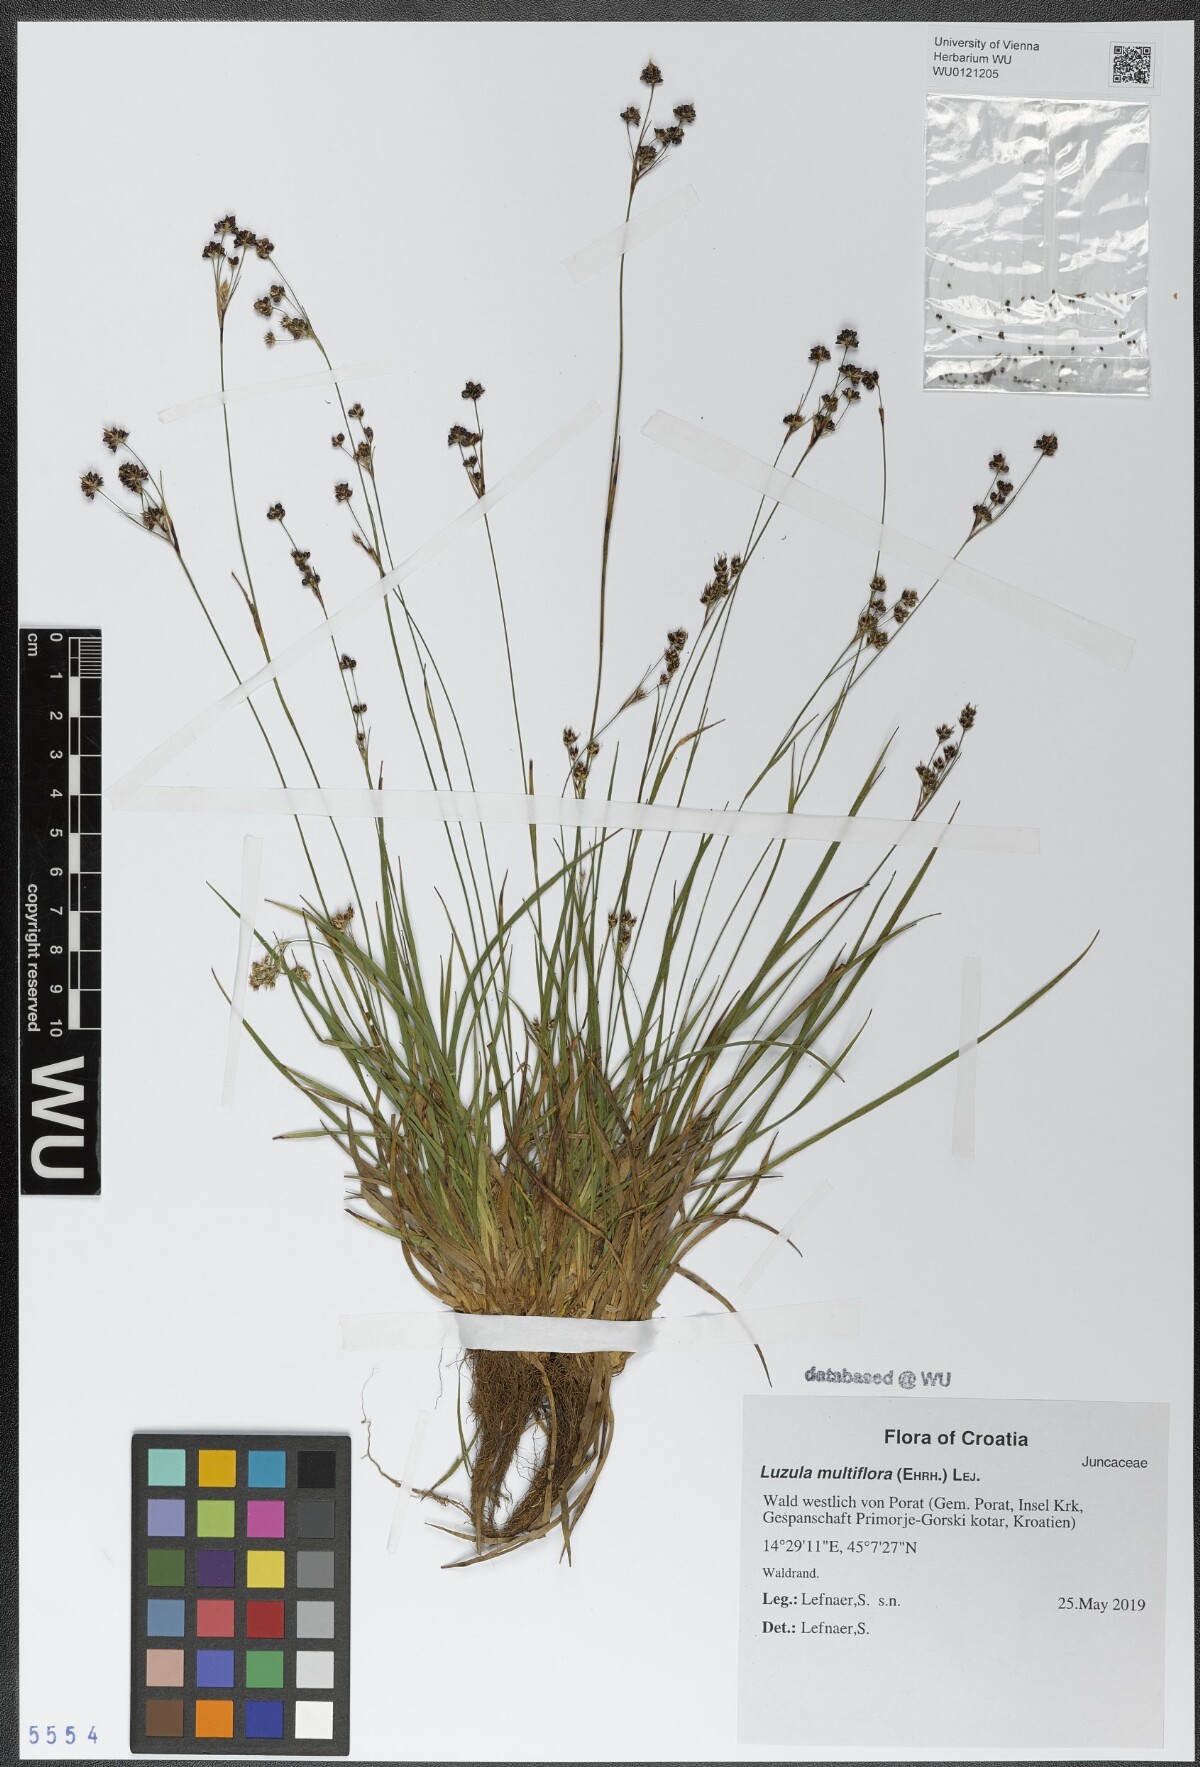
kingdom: Plantae
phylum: Tracheophyta
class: Liliopsida
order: Poales
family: Juncaceae
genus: Luzula
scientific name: Luzula multiflora
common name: Heath wood-rush
